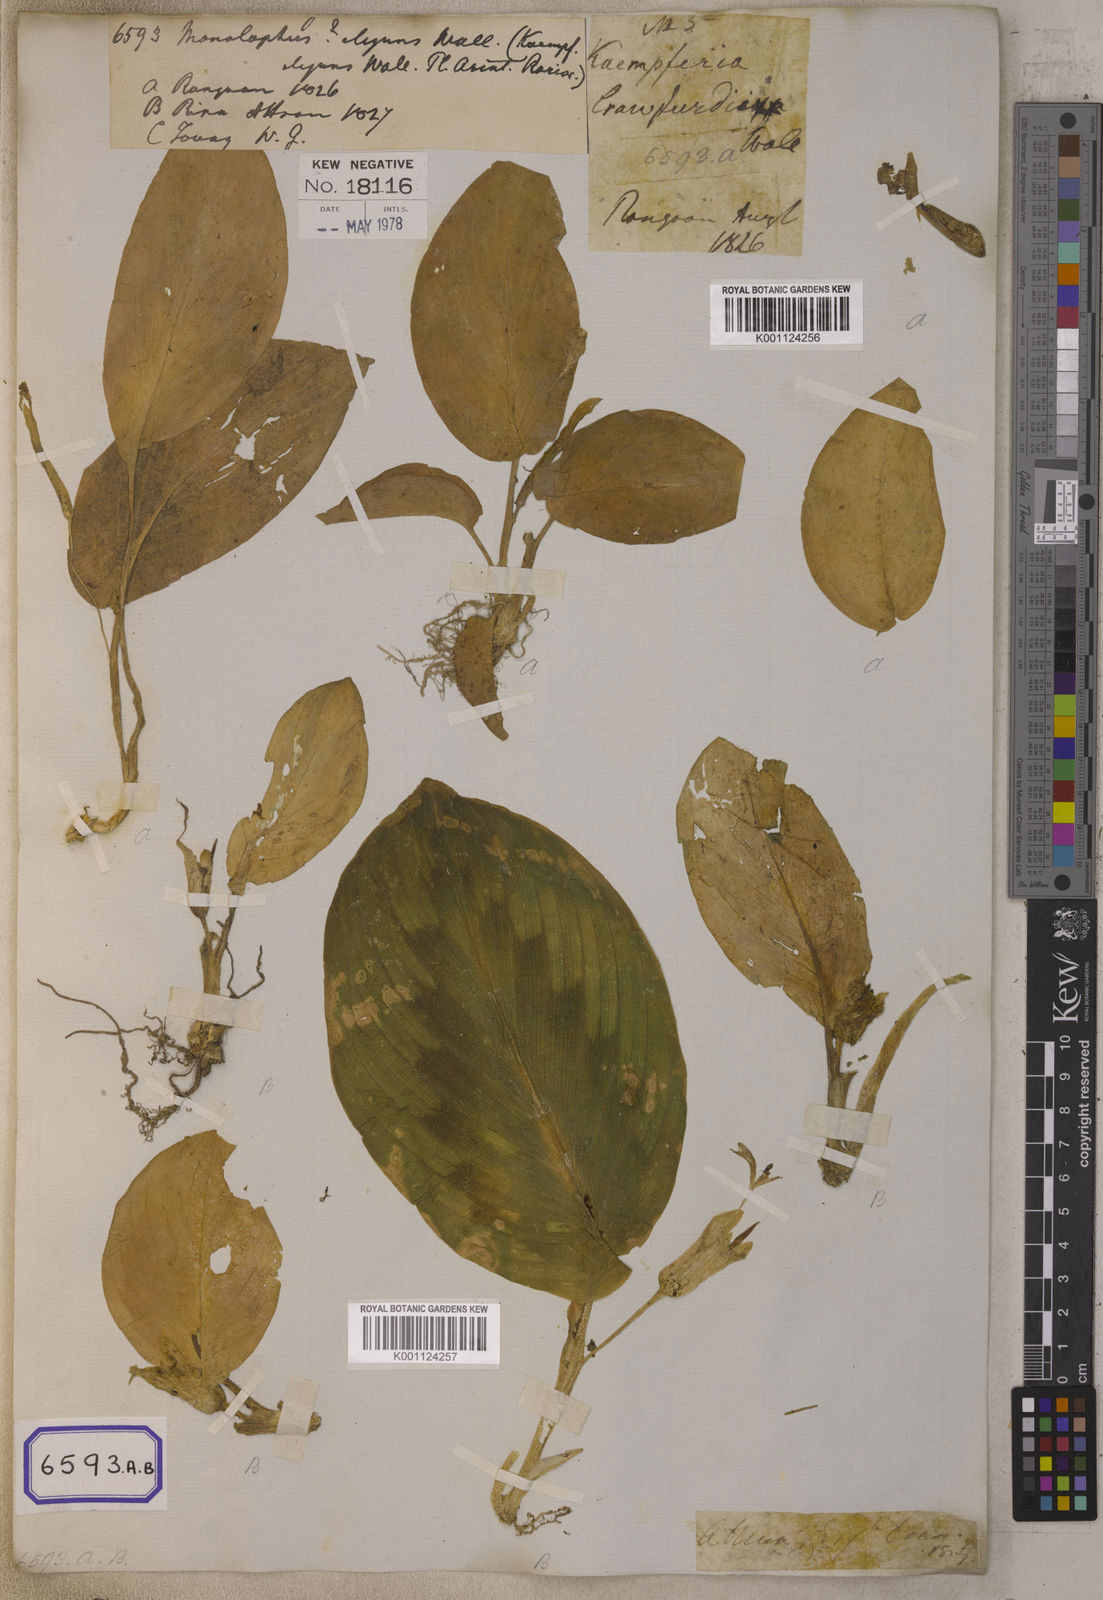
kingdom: Plantae
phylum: Tracheophyta
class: Liliopsida
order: Zingiberales
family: Zingiberaceae
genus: Kaempferia
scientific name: Kaempferia elegans
